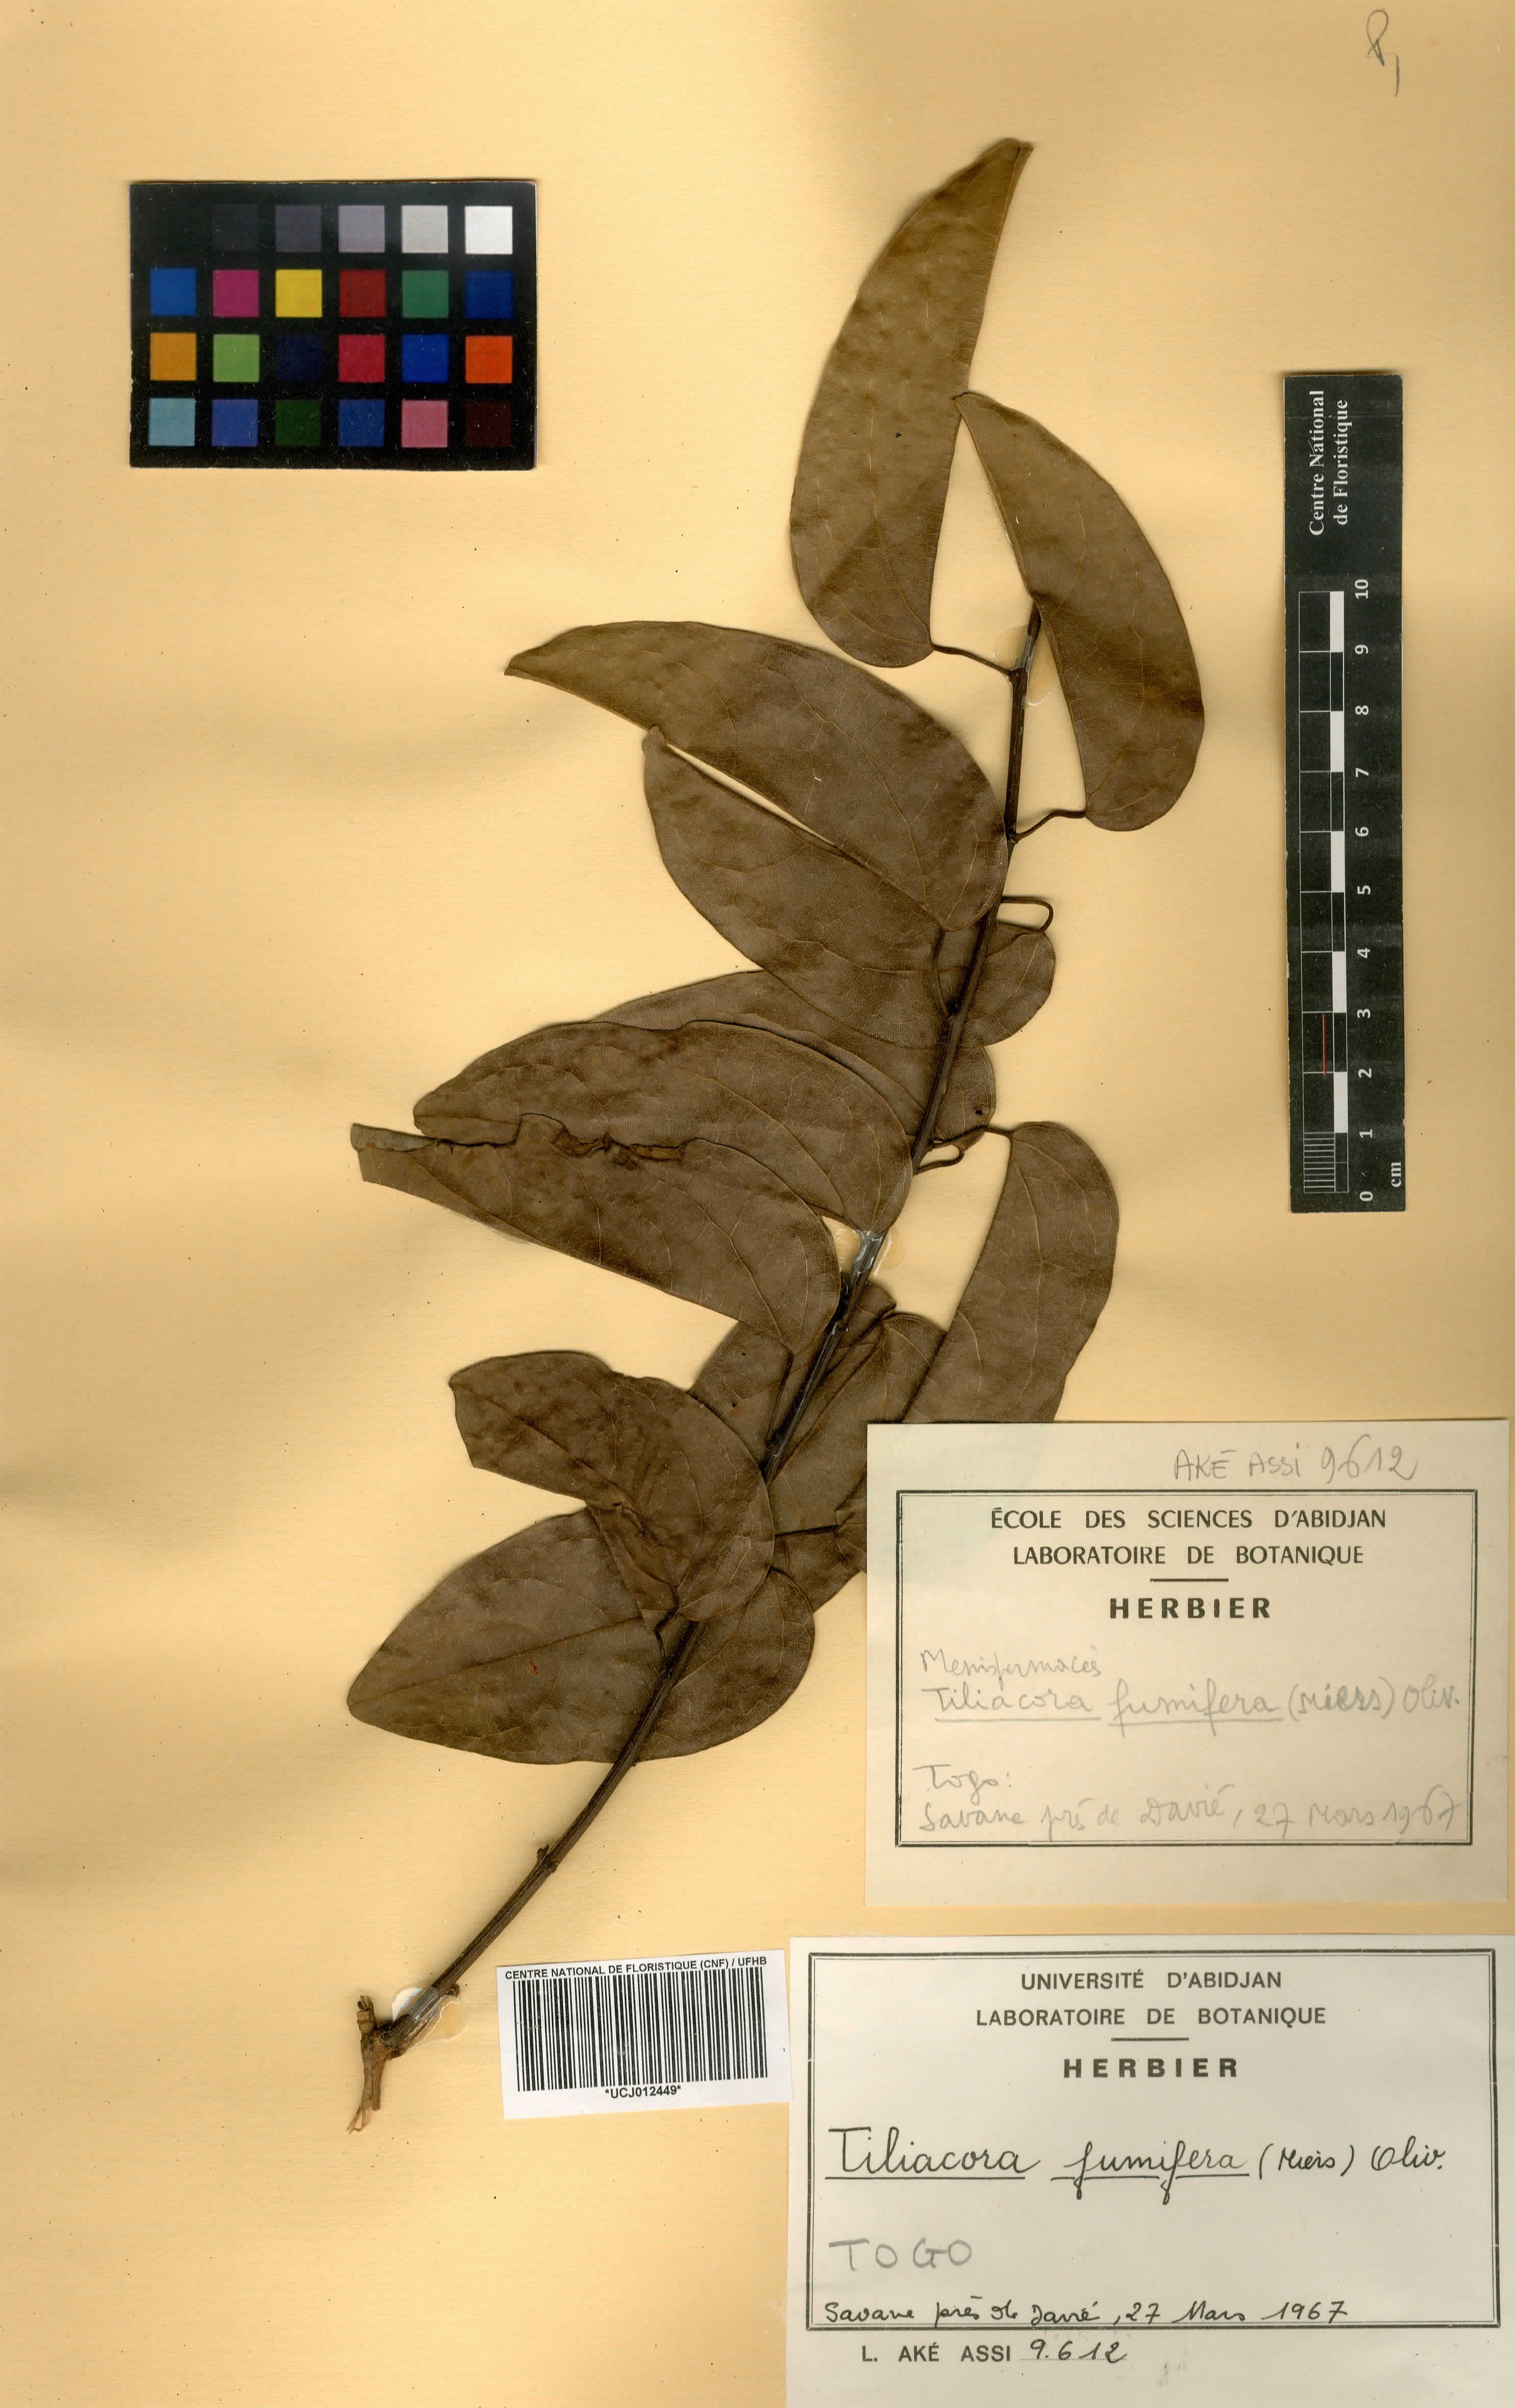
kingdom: Plantae
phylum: Tracheophyta
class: Magnoliopsida
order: Ranunculales
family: Menispermaceae
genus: Tiliacora
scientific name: Tiliacora funifera
